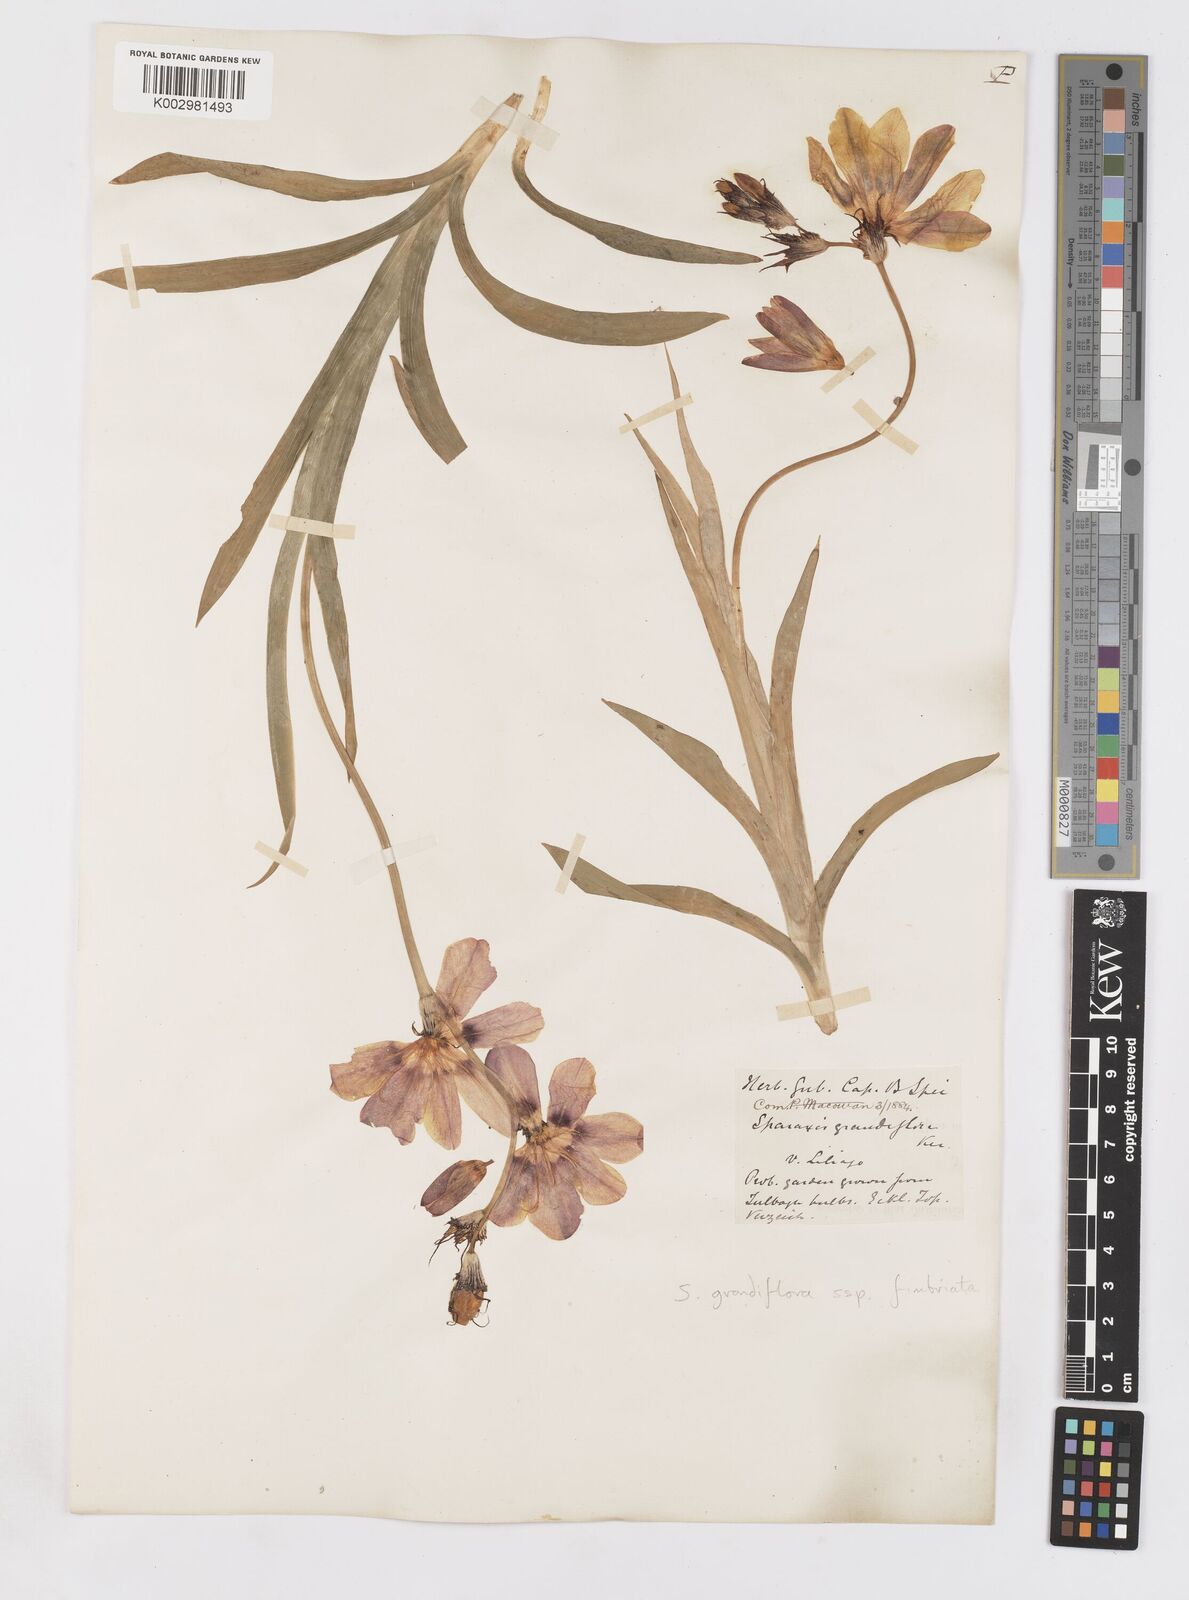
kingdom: Plantae
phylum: Tracheophyta
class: Liliopsida
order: Asparagales
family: Iridaceae
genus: Sparaxis
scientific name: Sparaxis grandiflora
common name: Plain harlequin-flower
